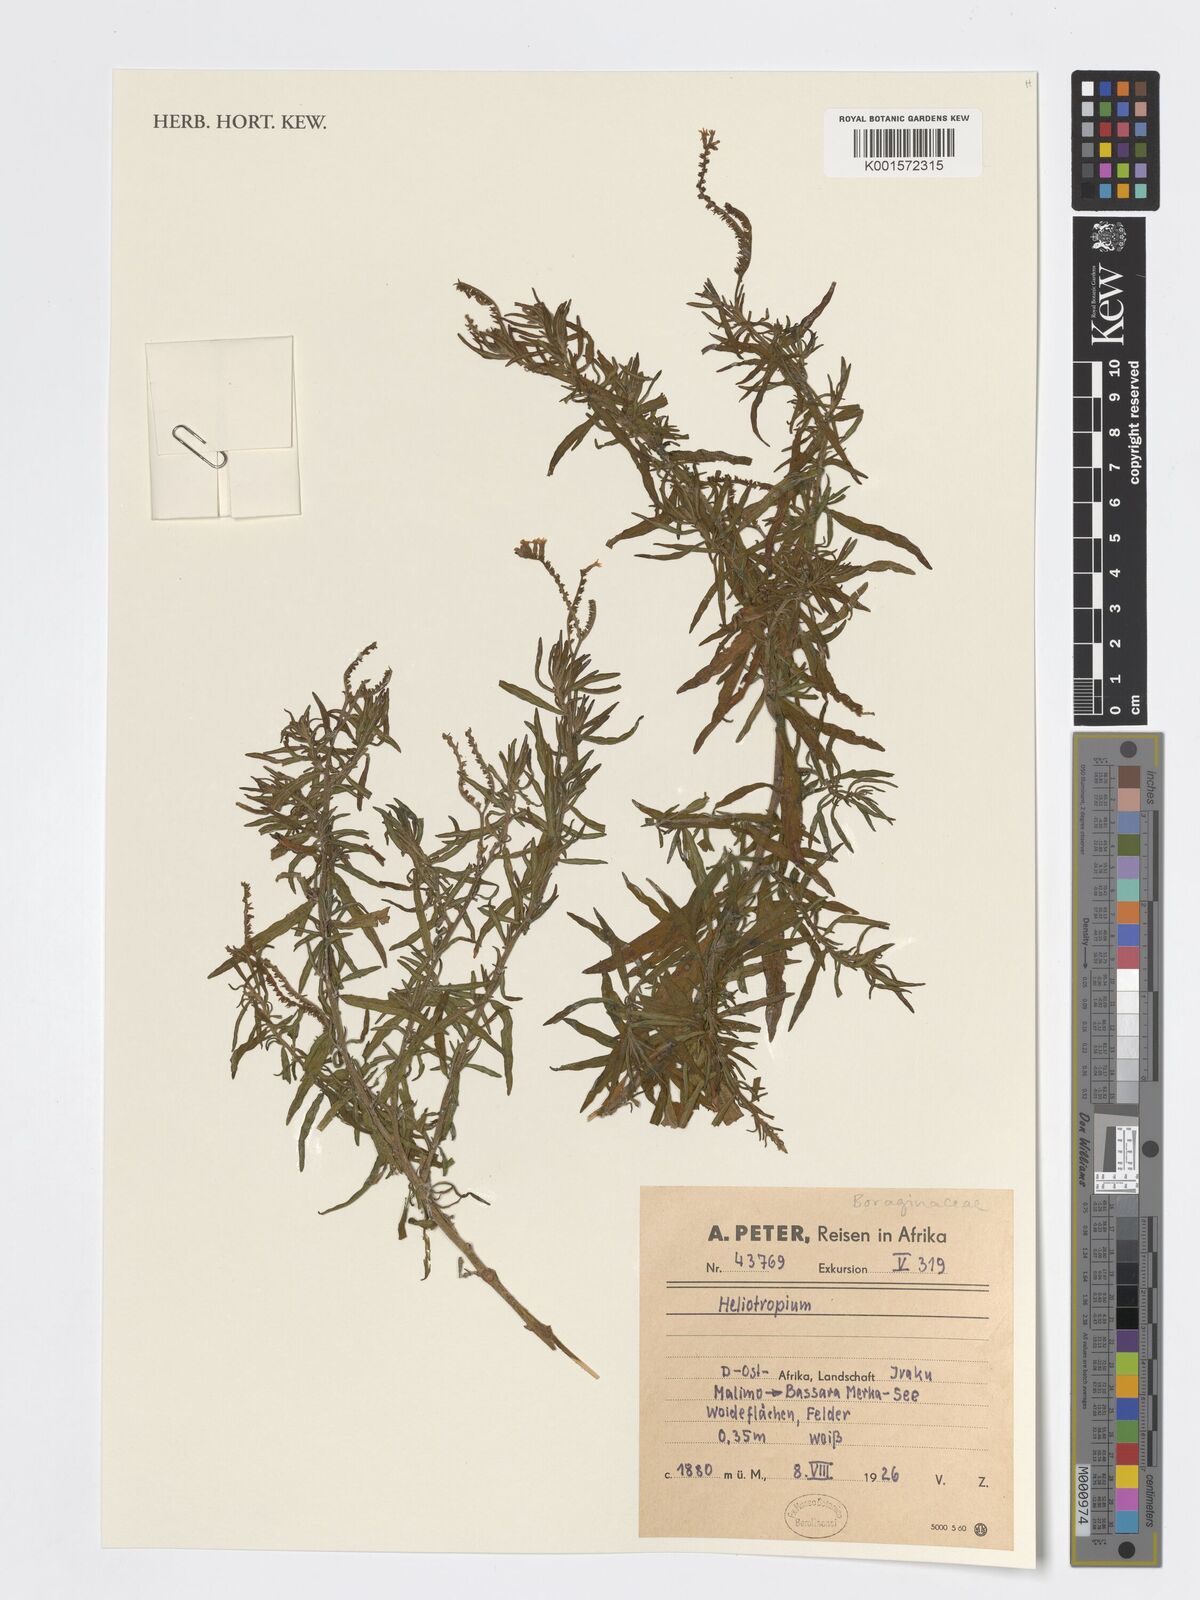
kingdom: Plantae
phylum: Tracheophyta
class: Magnoliopsida
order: Boraginales
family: Heliotropiaceae
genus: Heliotropium
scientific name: Heliotropium
